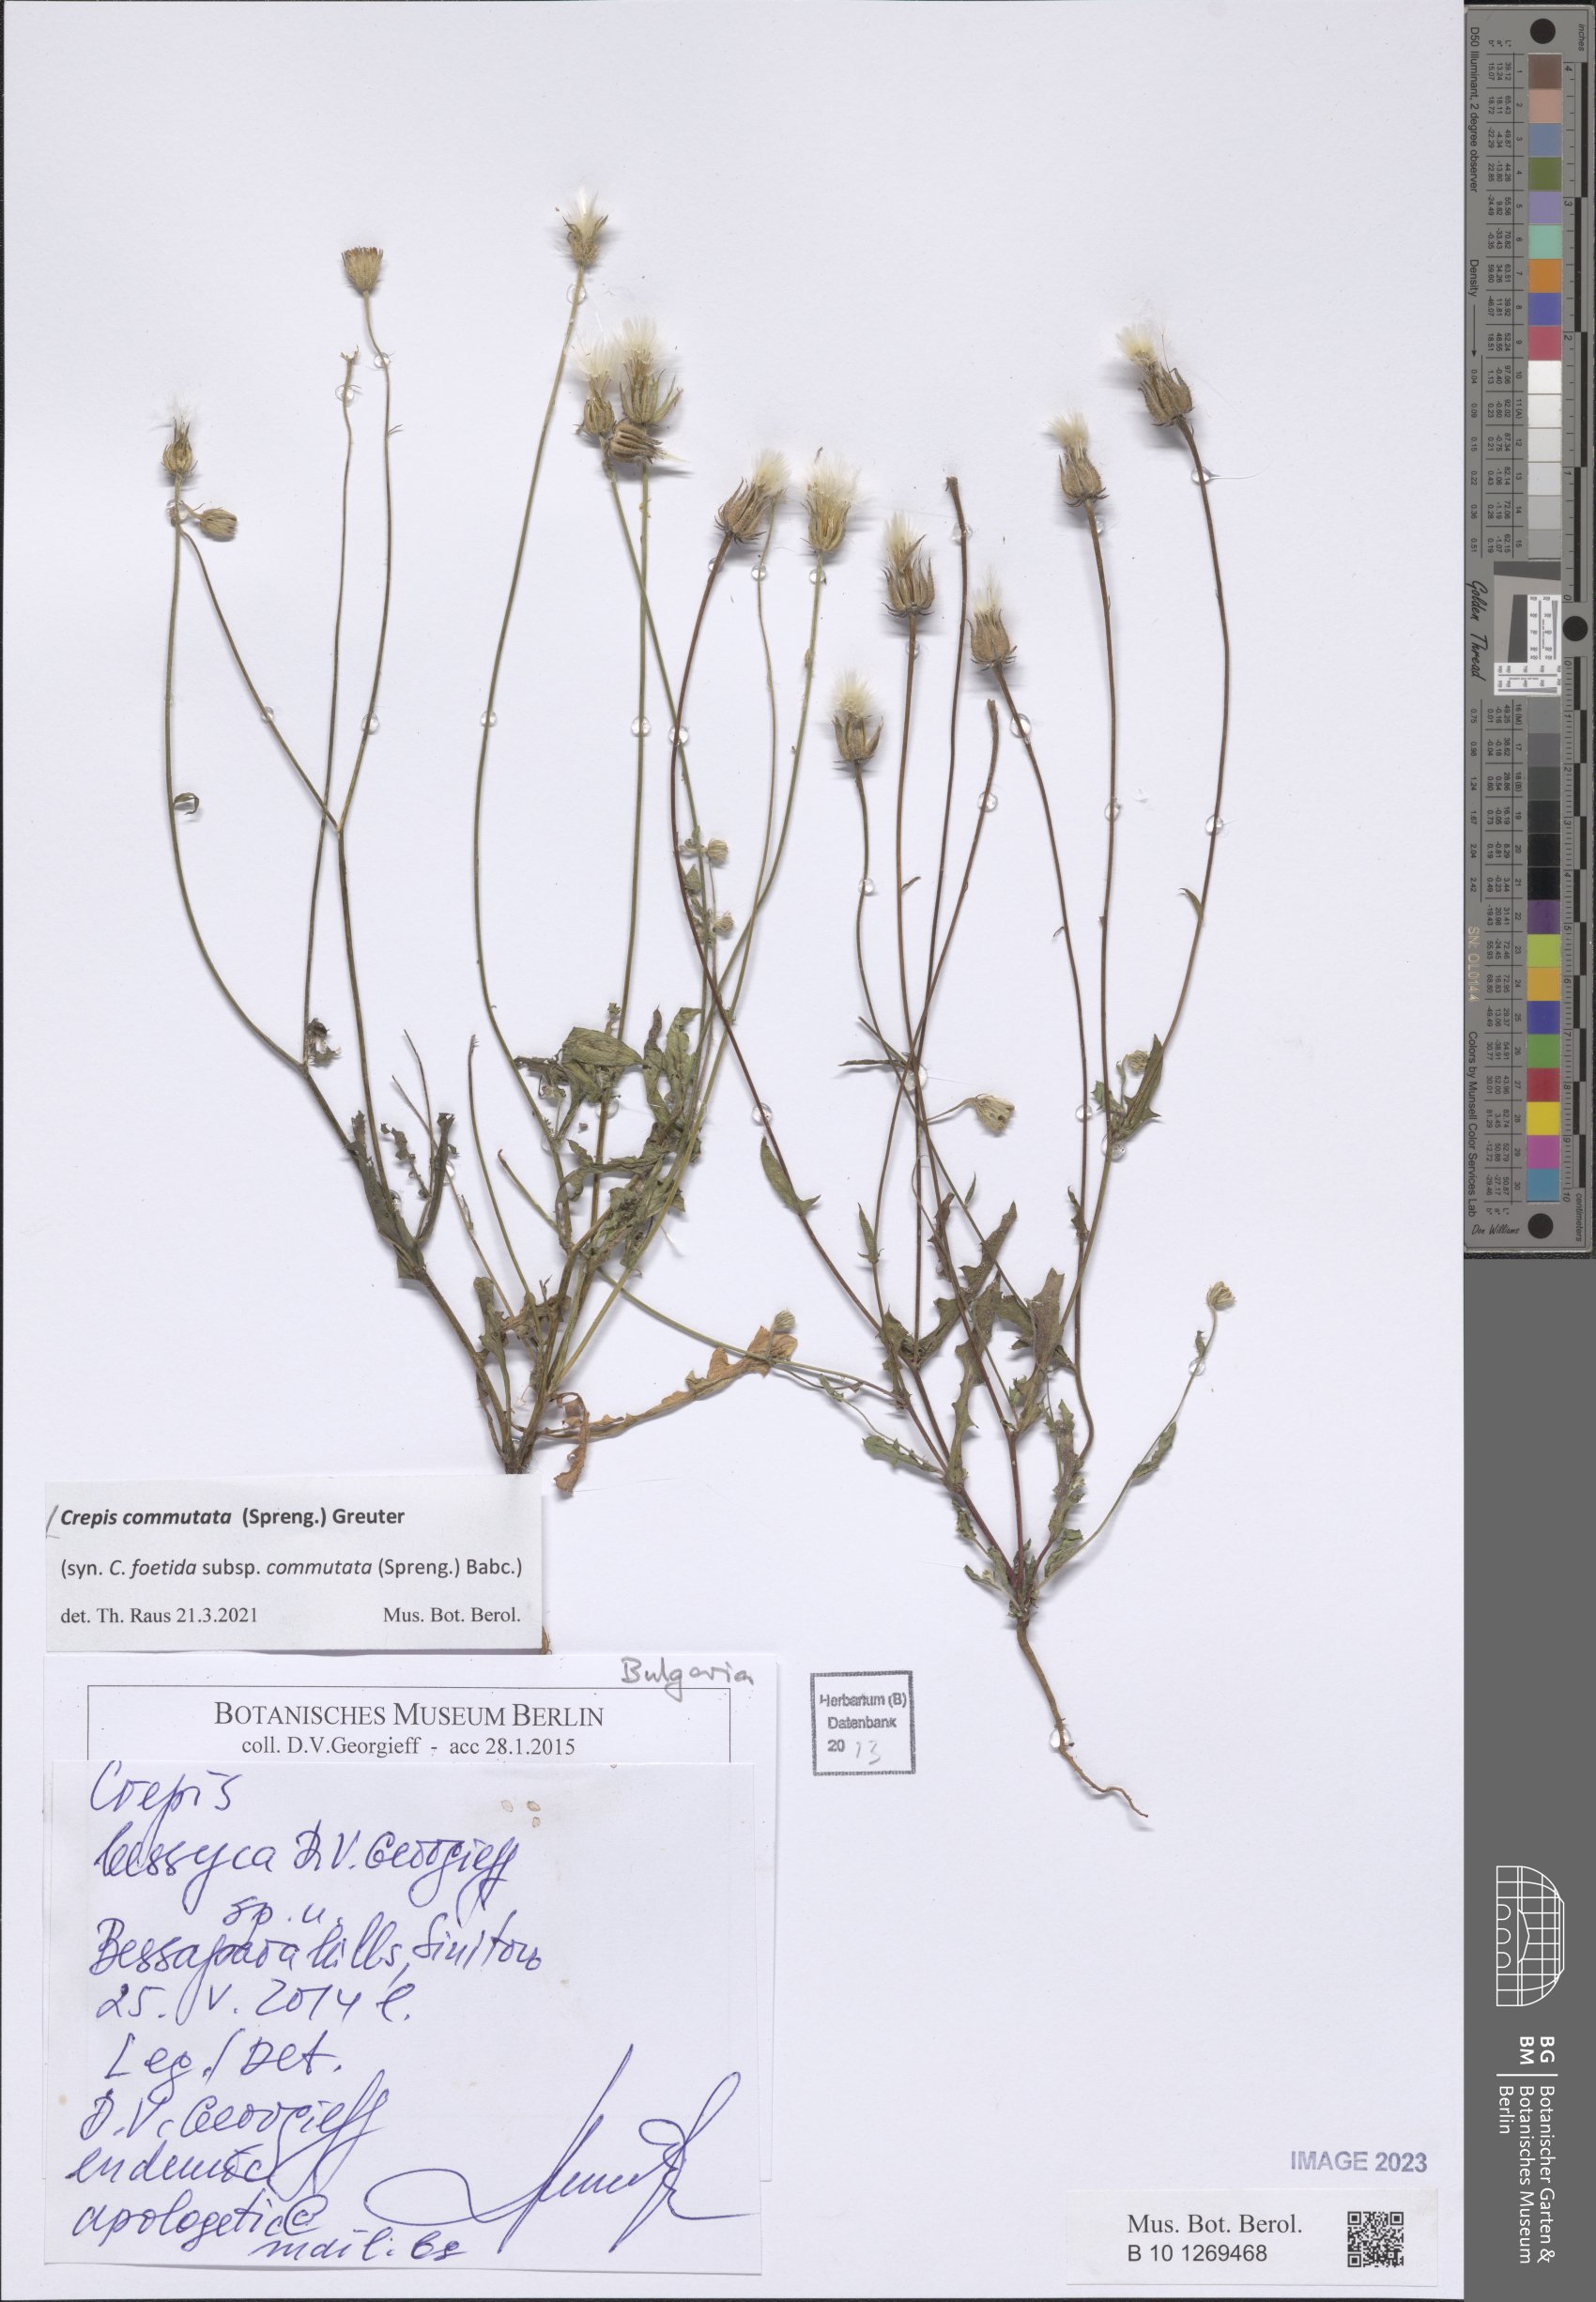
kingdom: Plantae
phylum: Tracheophyta
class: Magnoliopsida
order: Asterales
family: Asteraceae
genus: Crepis
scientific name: Crepis commutata
